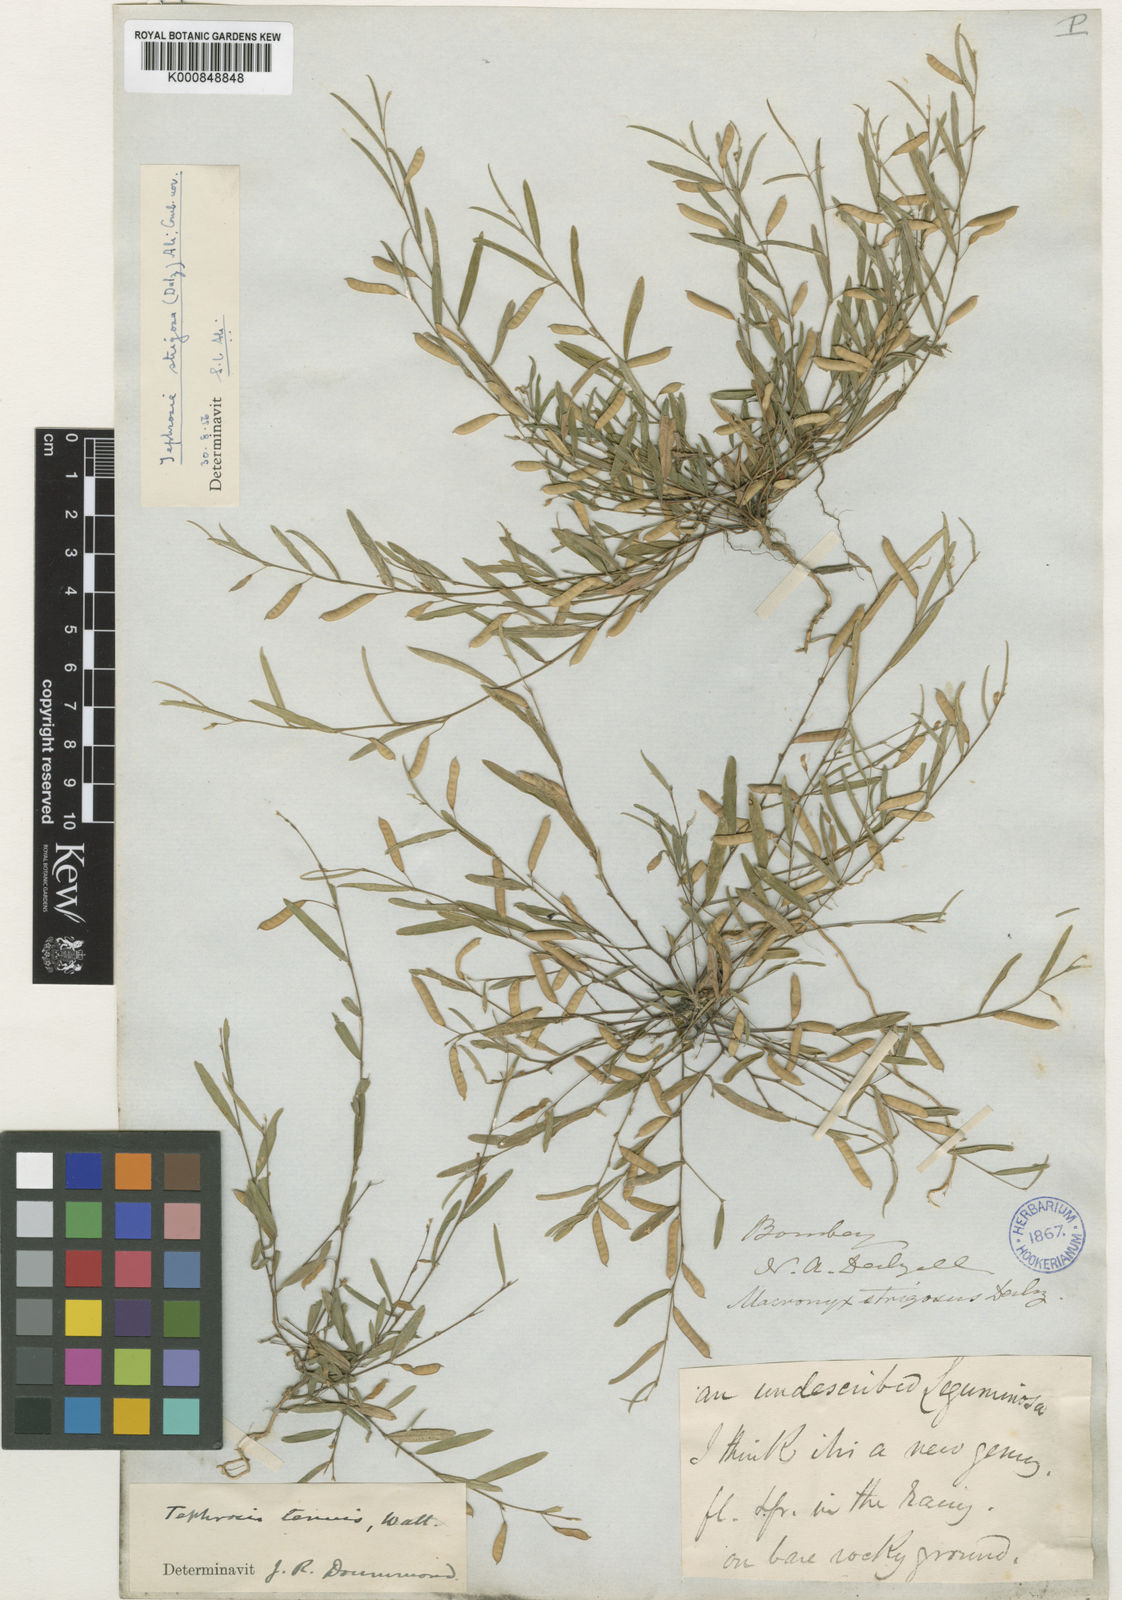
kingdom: Plantae
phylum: Tracheophyta
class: Magnoliopsida
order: Fabales
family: Fabaceae
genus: Tephrosia
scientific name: Tephrosia
